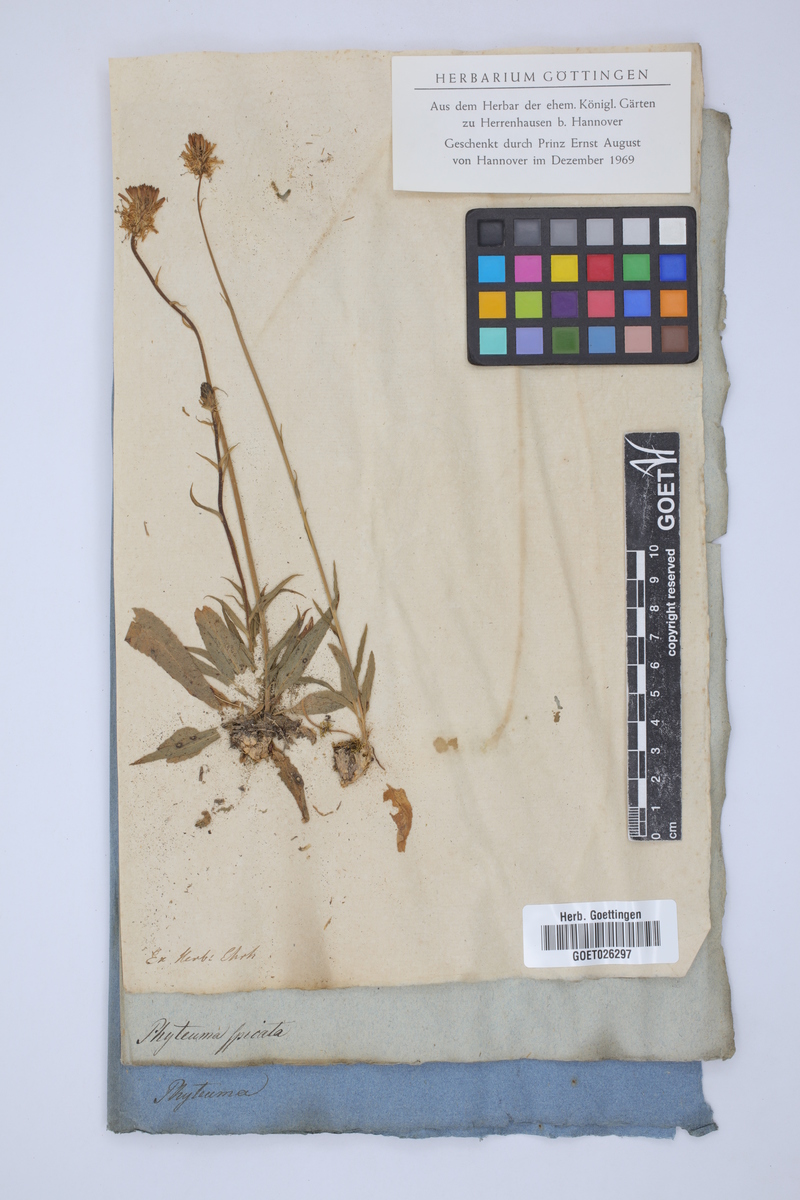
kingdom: Plantae
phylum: Tracheophyta
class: Magnoliopsida
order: Asterales
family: Campanulaceae
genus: Phyteuma
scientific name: Phyteuma spicatum
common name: Spiked rampion
